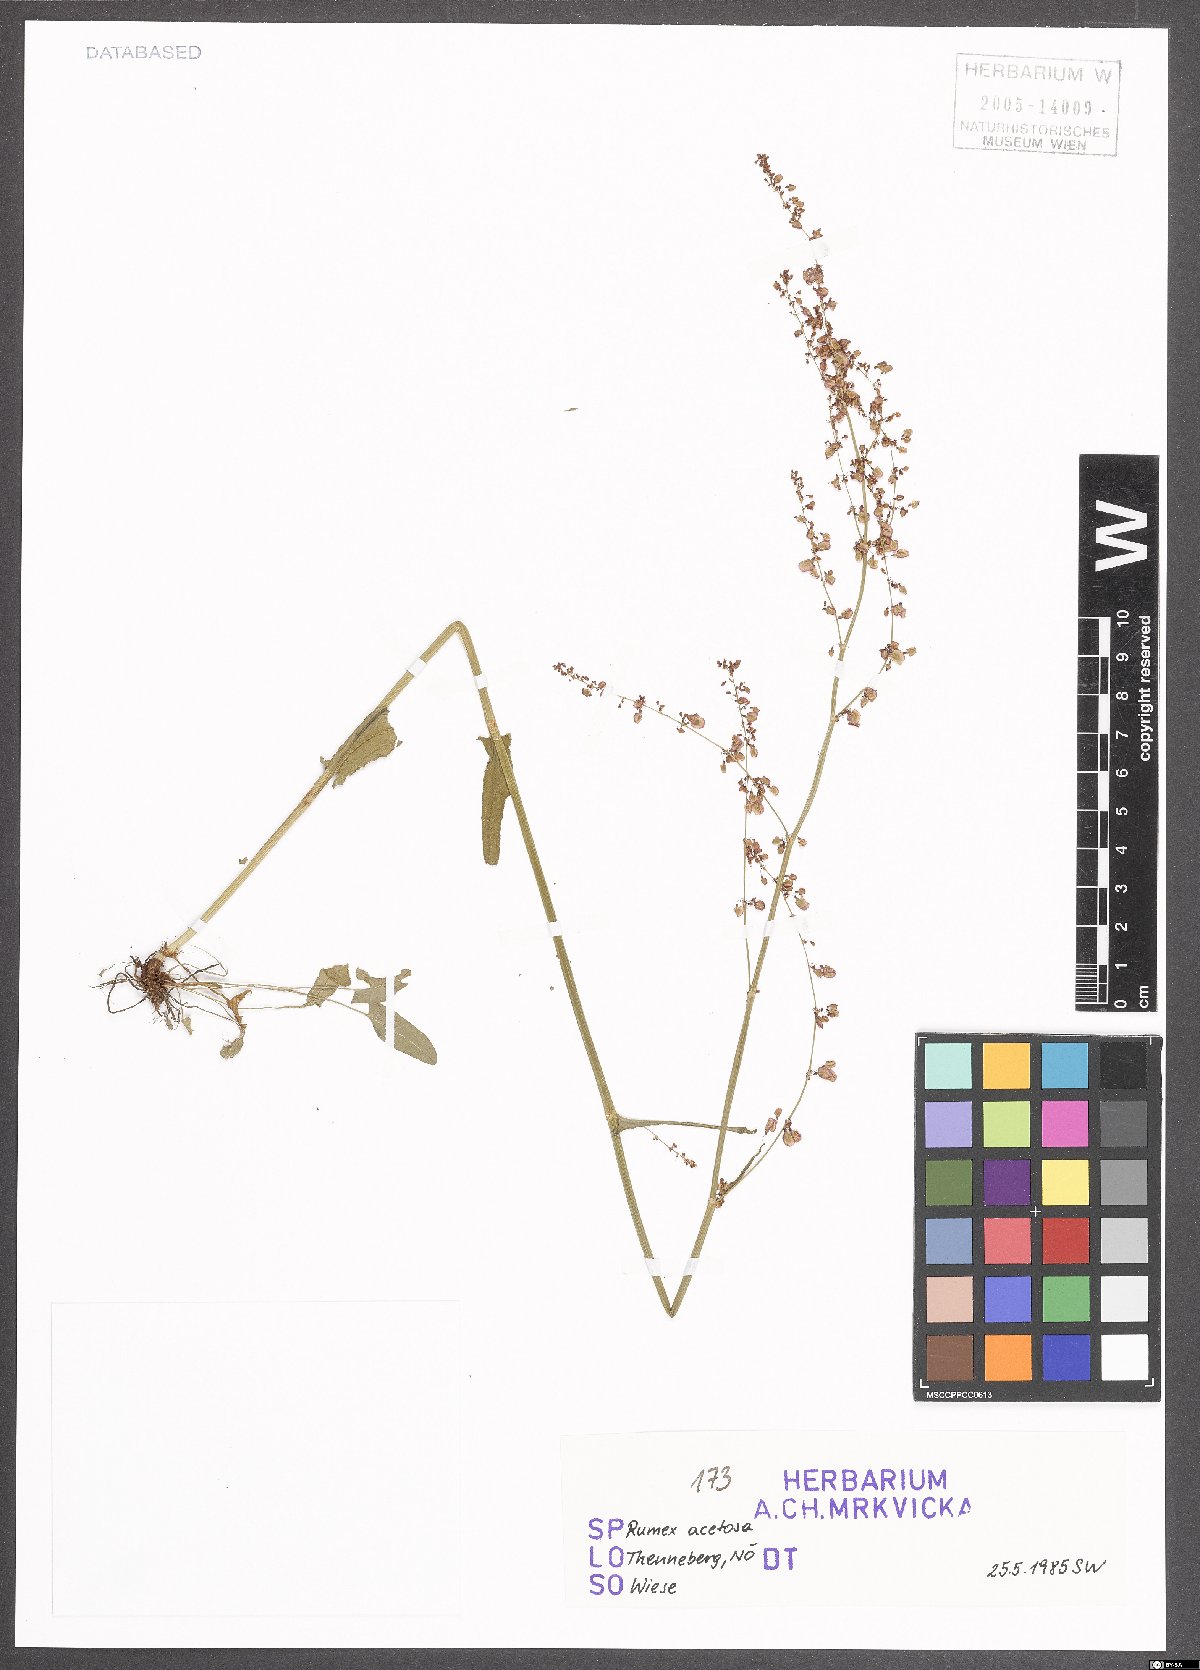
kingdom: Plantae
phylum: Tracheophyta
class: Magnoliopsida
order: Caryophyllales
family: Polygonaceae
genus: Rumex
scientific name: Rumex acetosa
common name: Garden sorrel
